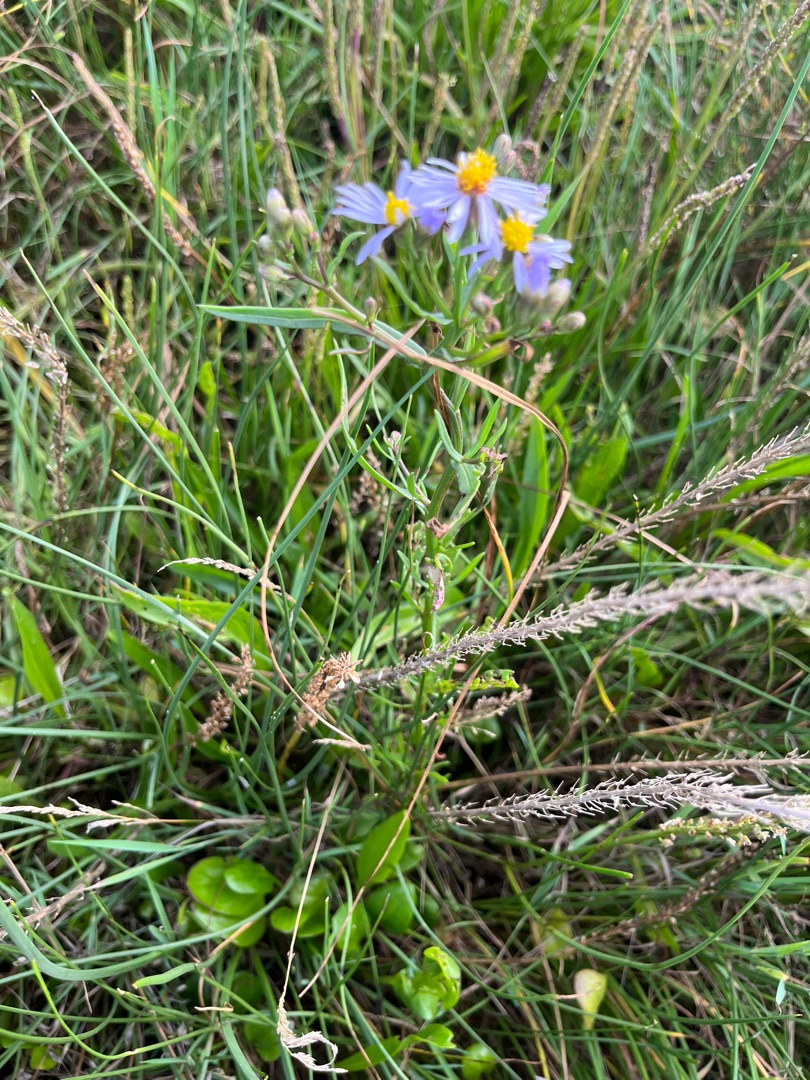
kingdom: Plantae
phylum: Tracheophyta
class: Magnoliopsida
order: Asterales
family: Asteraceae
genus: Tripolium
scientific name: Tripolium pannonicum
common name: Strandasters
